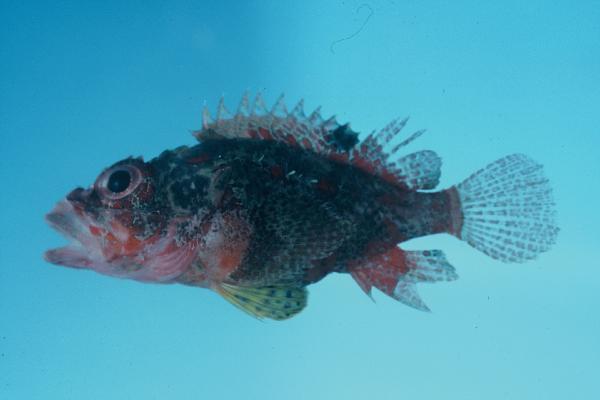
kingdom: Animalia
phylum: Chordata
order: Scorpaeniformes
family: Scorpaenidae
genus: Scorpaenodes
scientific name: Scorpaenodes varipinnis
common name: Blotchfin scorpionfish
